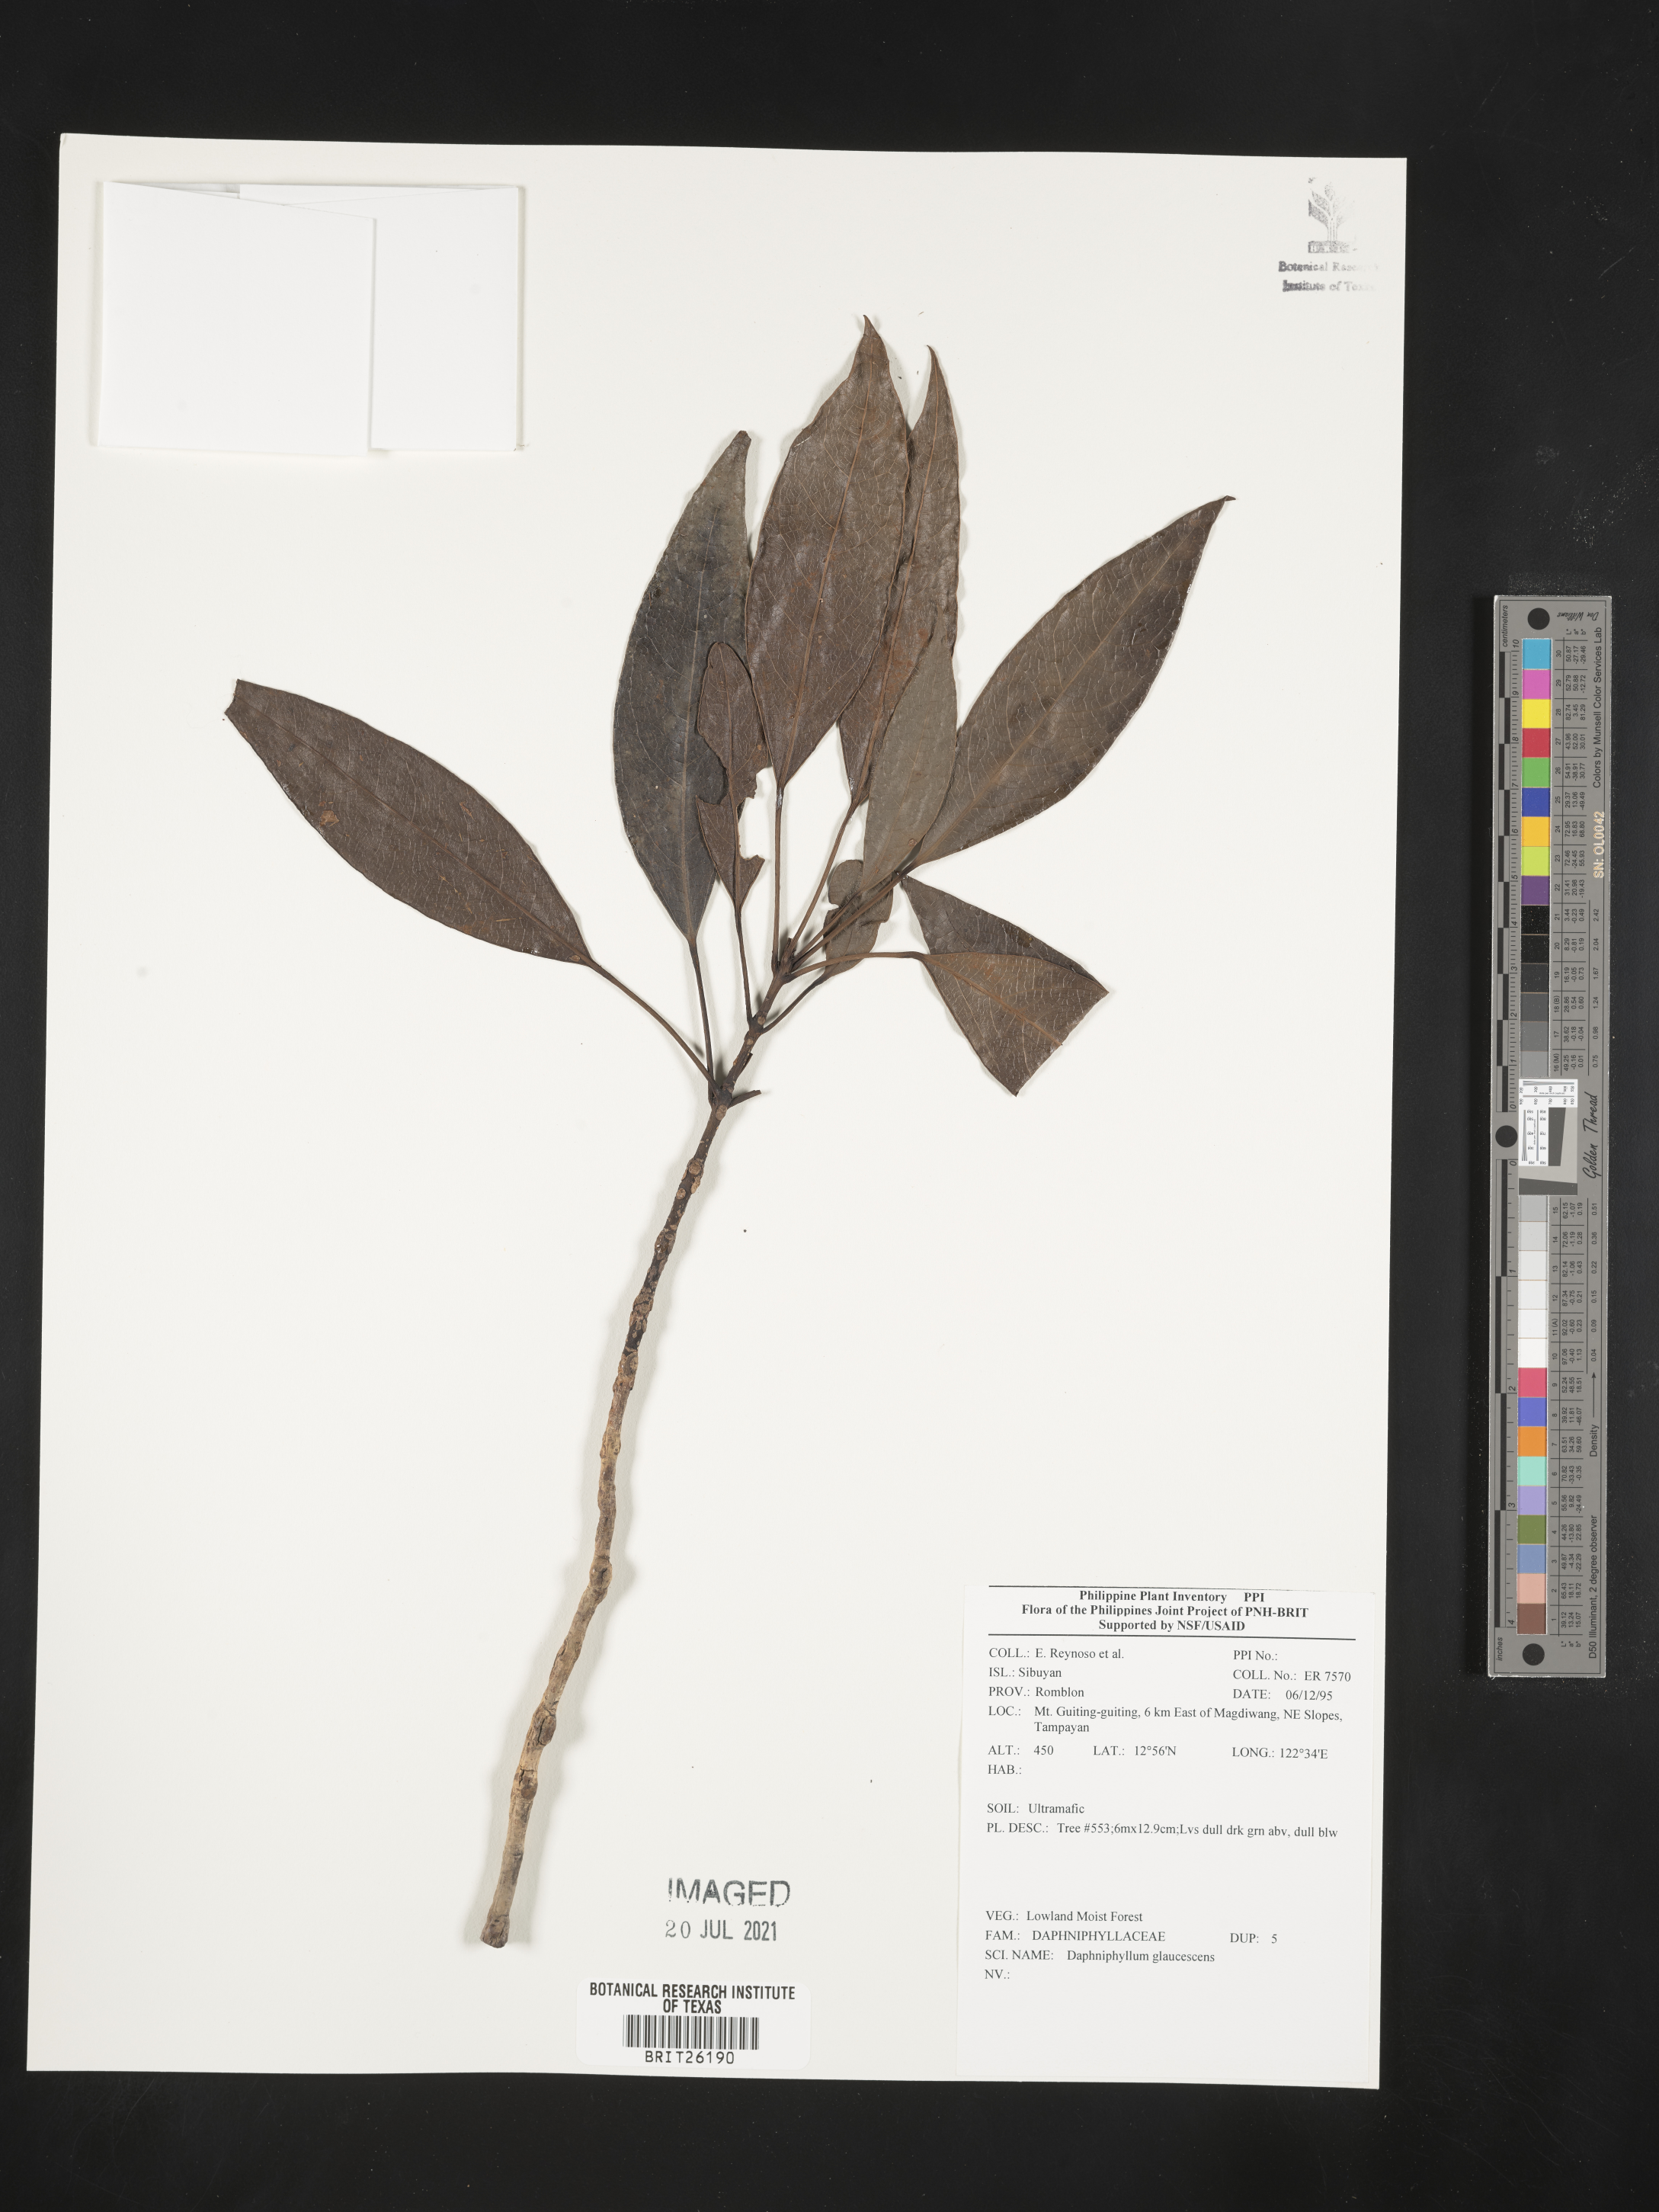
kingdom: Plantae
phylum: Tracheophyta
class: Magnoliopsida
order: Saxifragales
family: Daphniphyllaceae
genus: Daphniphyllum
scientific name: Daphniphyllum glaucescens
